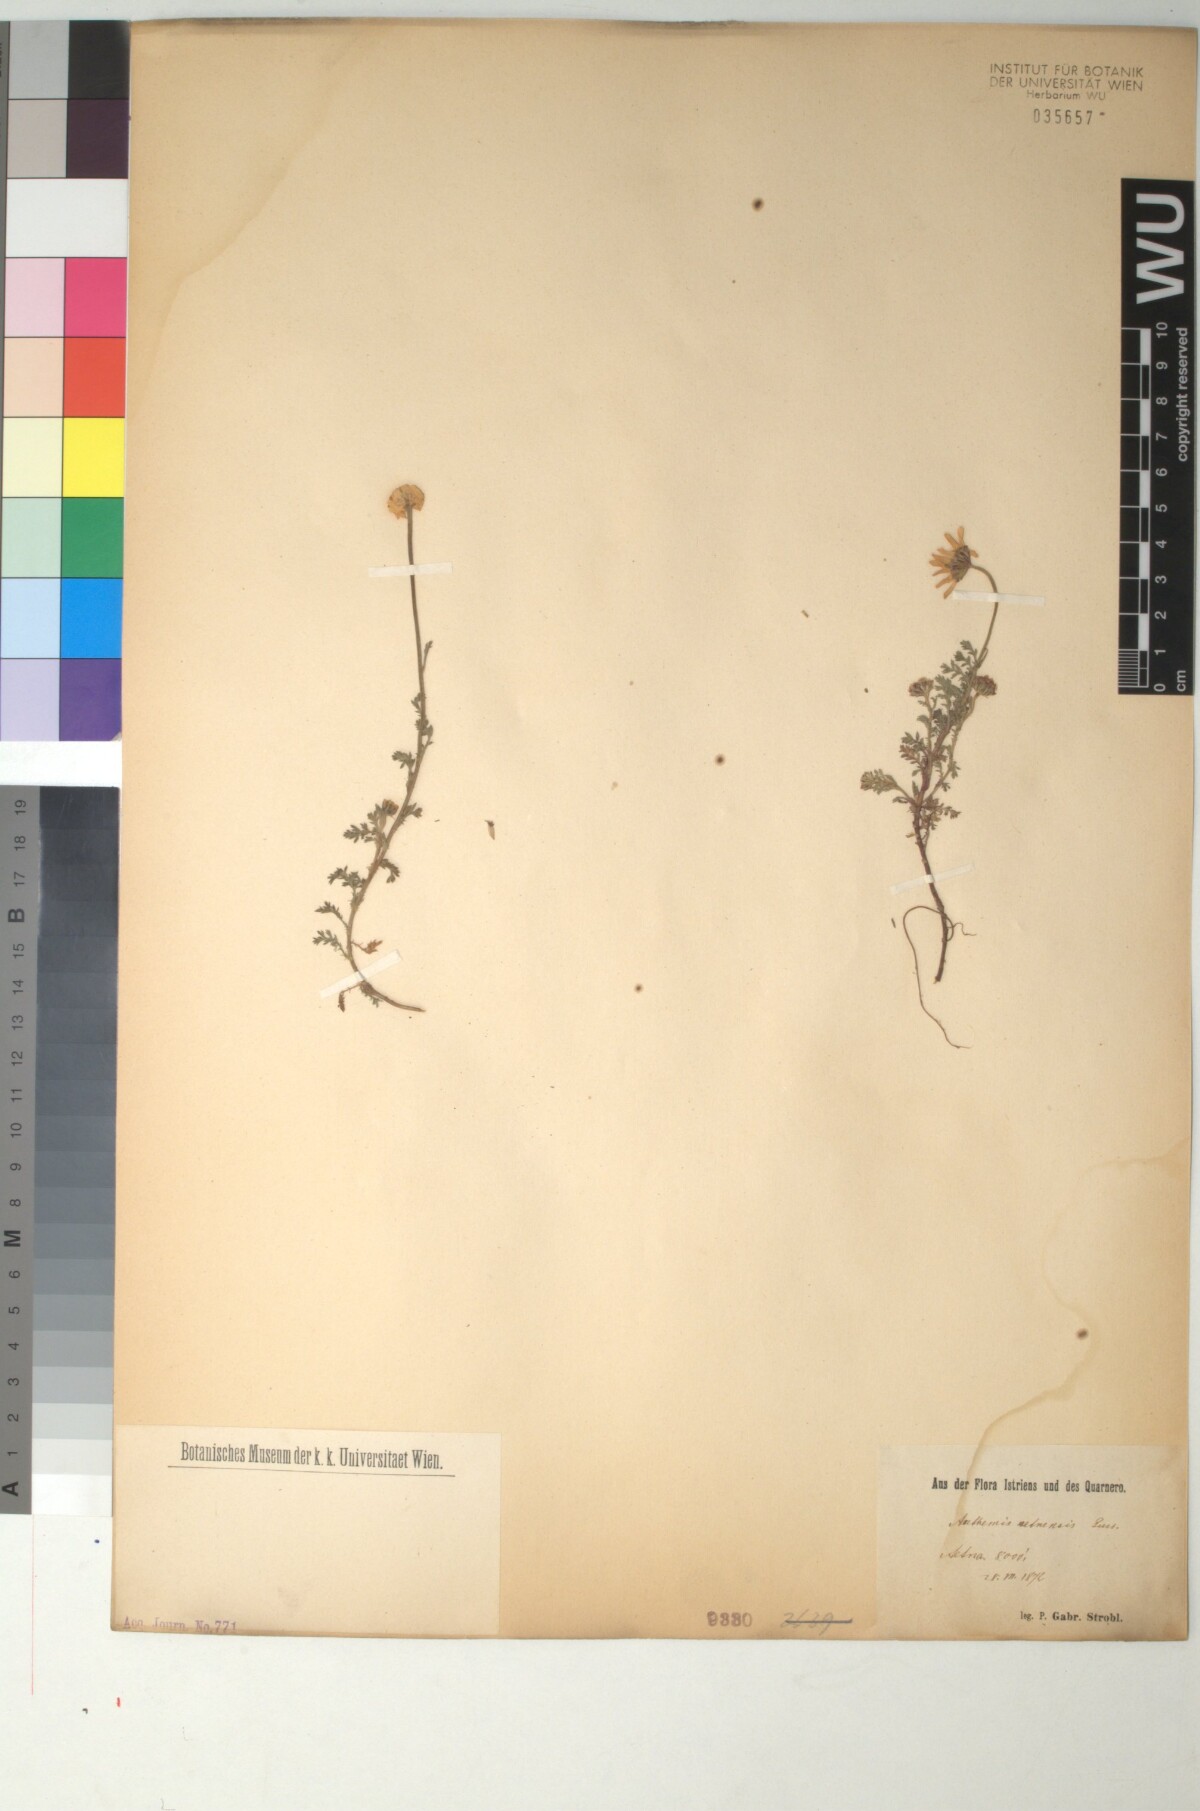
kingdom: Plantae
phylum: Tracheophyta
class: Magnoliopsida
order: Asterales
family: Asteraceae
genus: Anthemis
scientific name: Anthemis aetnensis
